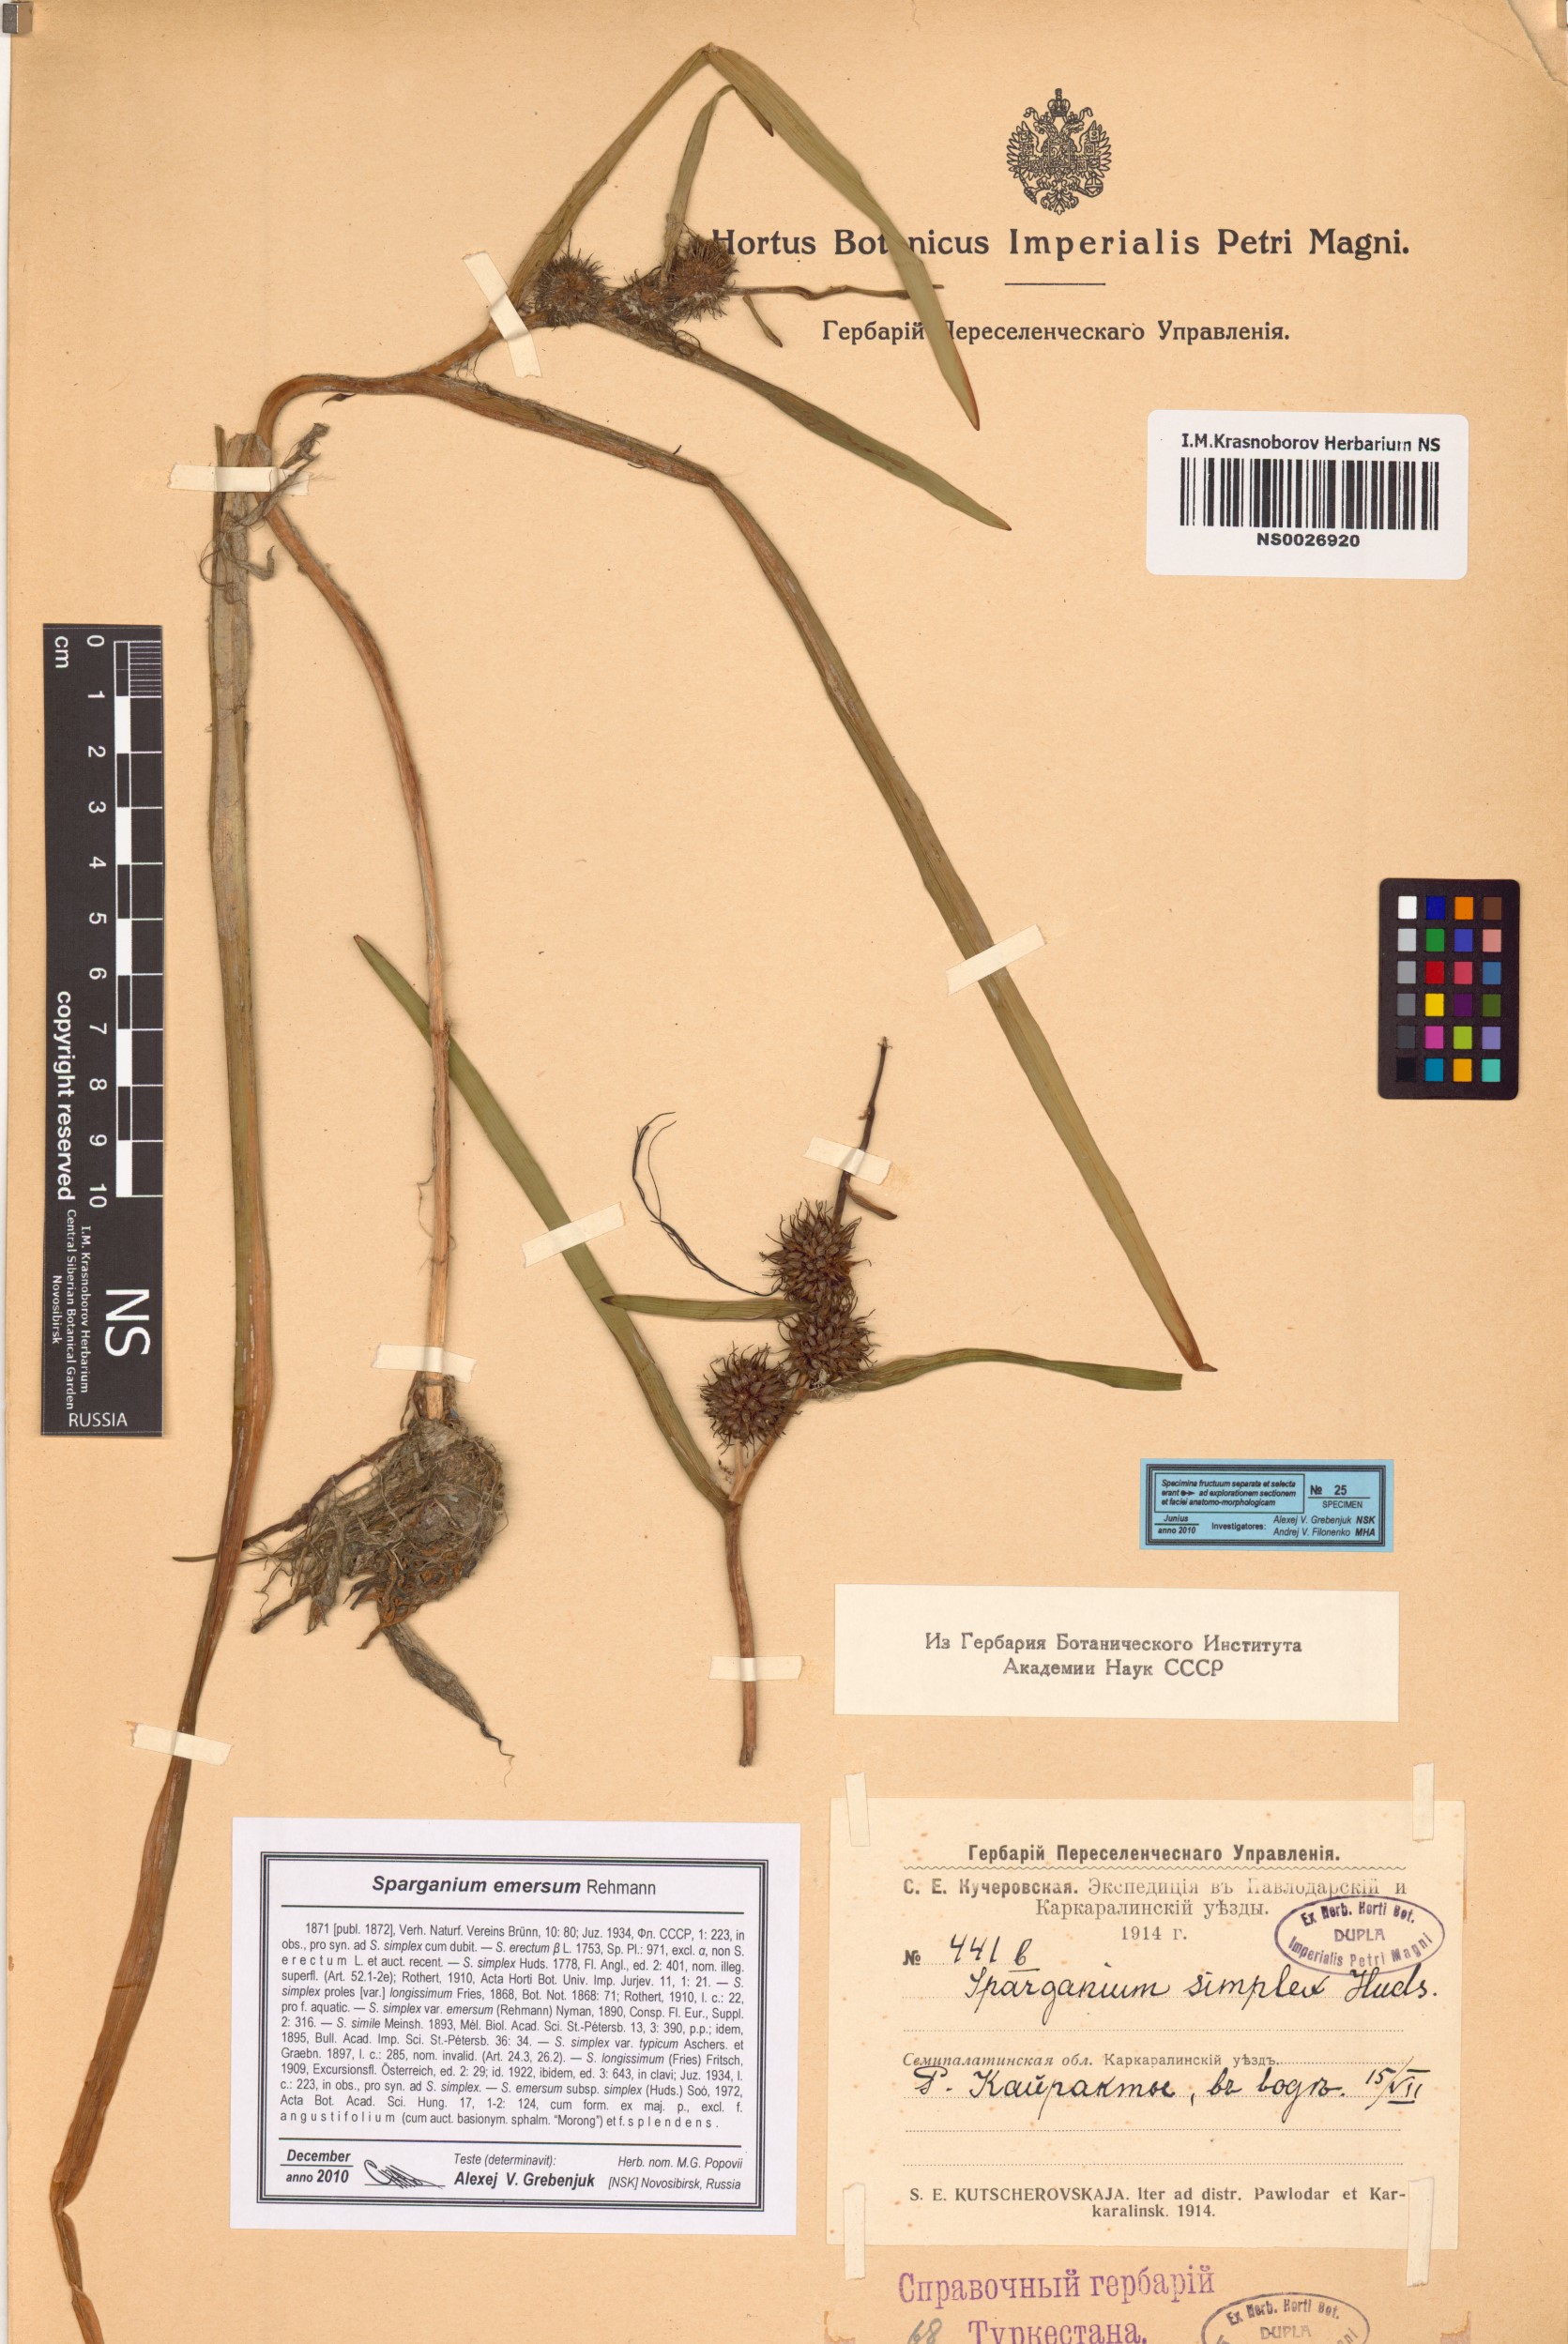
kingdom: Plantae
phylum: Tracheophyta
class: Liliopsida
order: Poales
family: Typhaceae
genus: Sparganium
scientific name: Sparganium emersum
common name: Unbranched bur-reed
